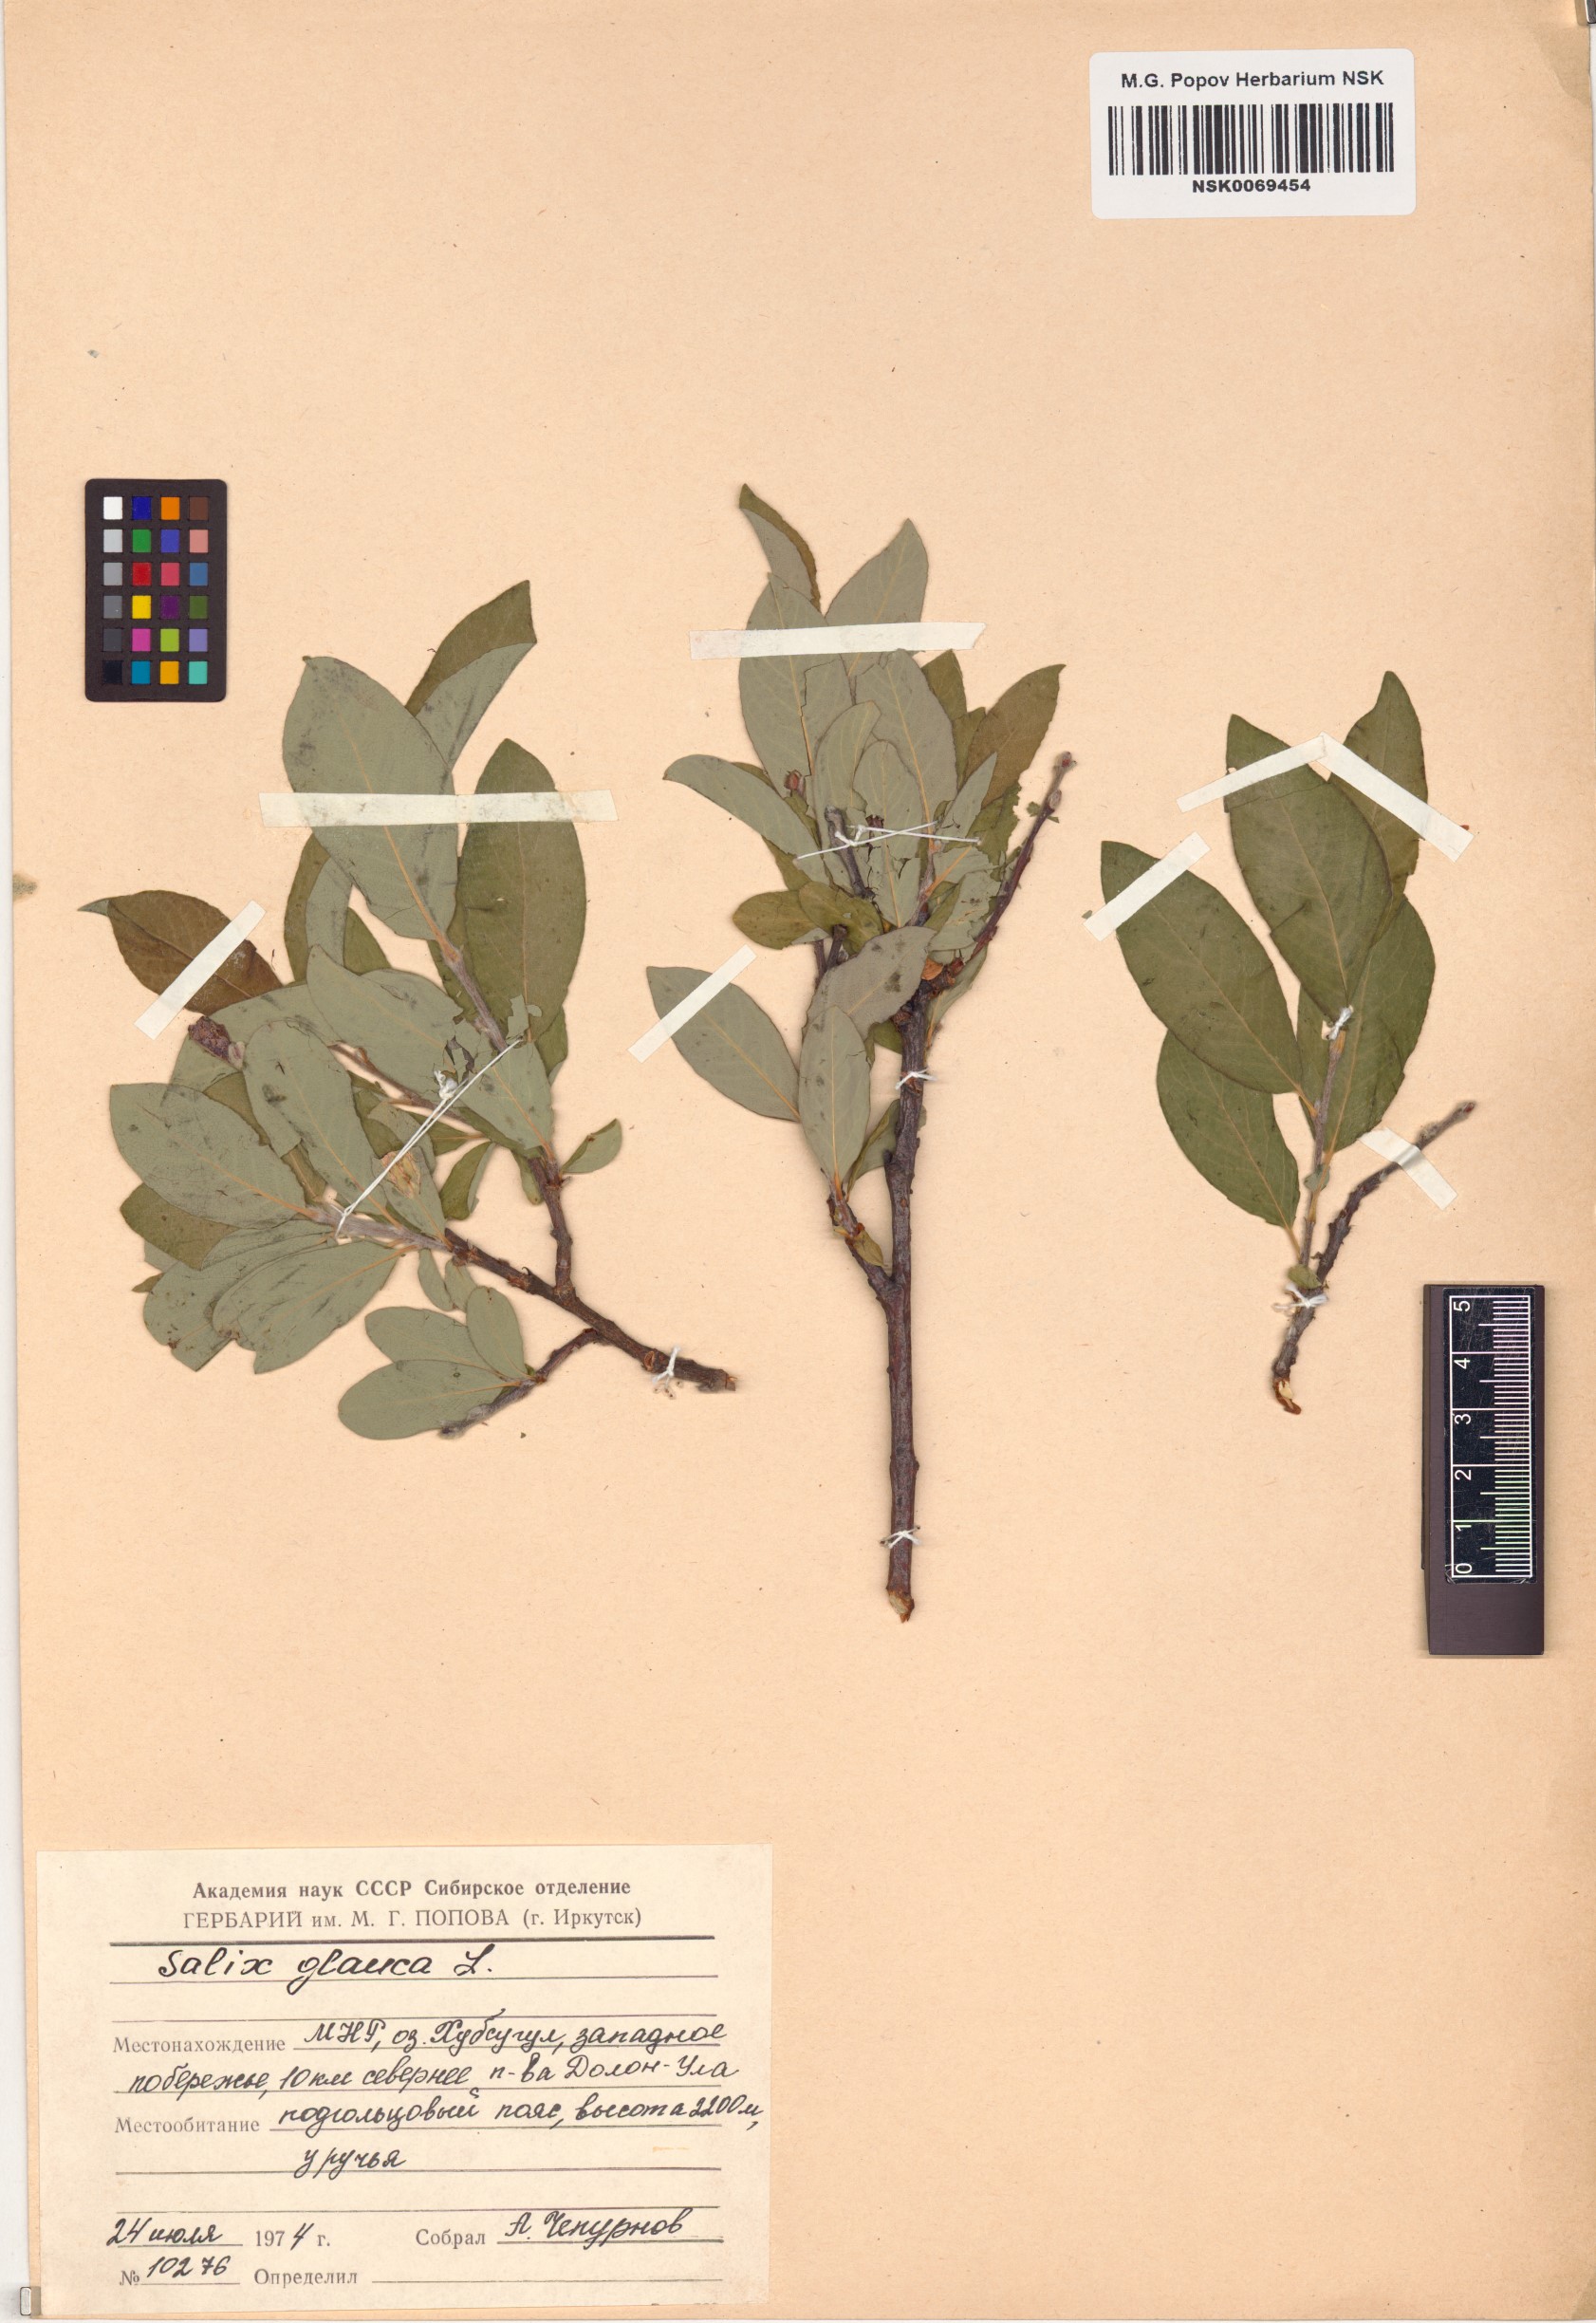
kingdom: Plantae
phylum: Tracheophyta
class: Magnoliopsida
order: Malpighiales
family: Salicaceae
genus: Salix
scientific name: Salix glauca
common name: Glaucous willow
